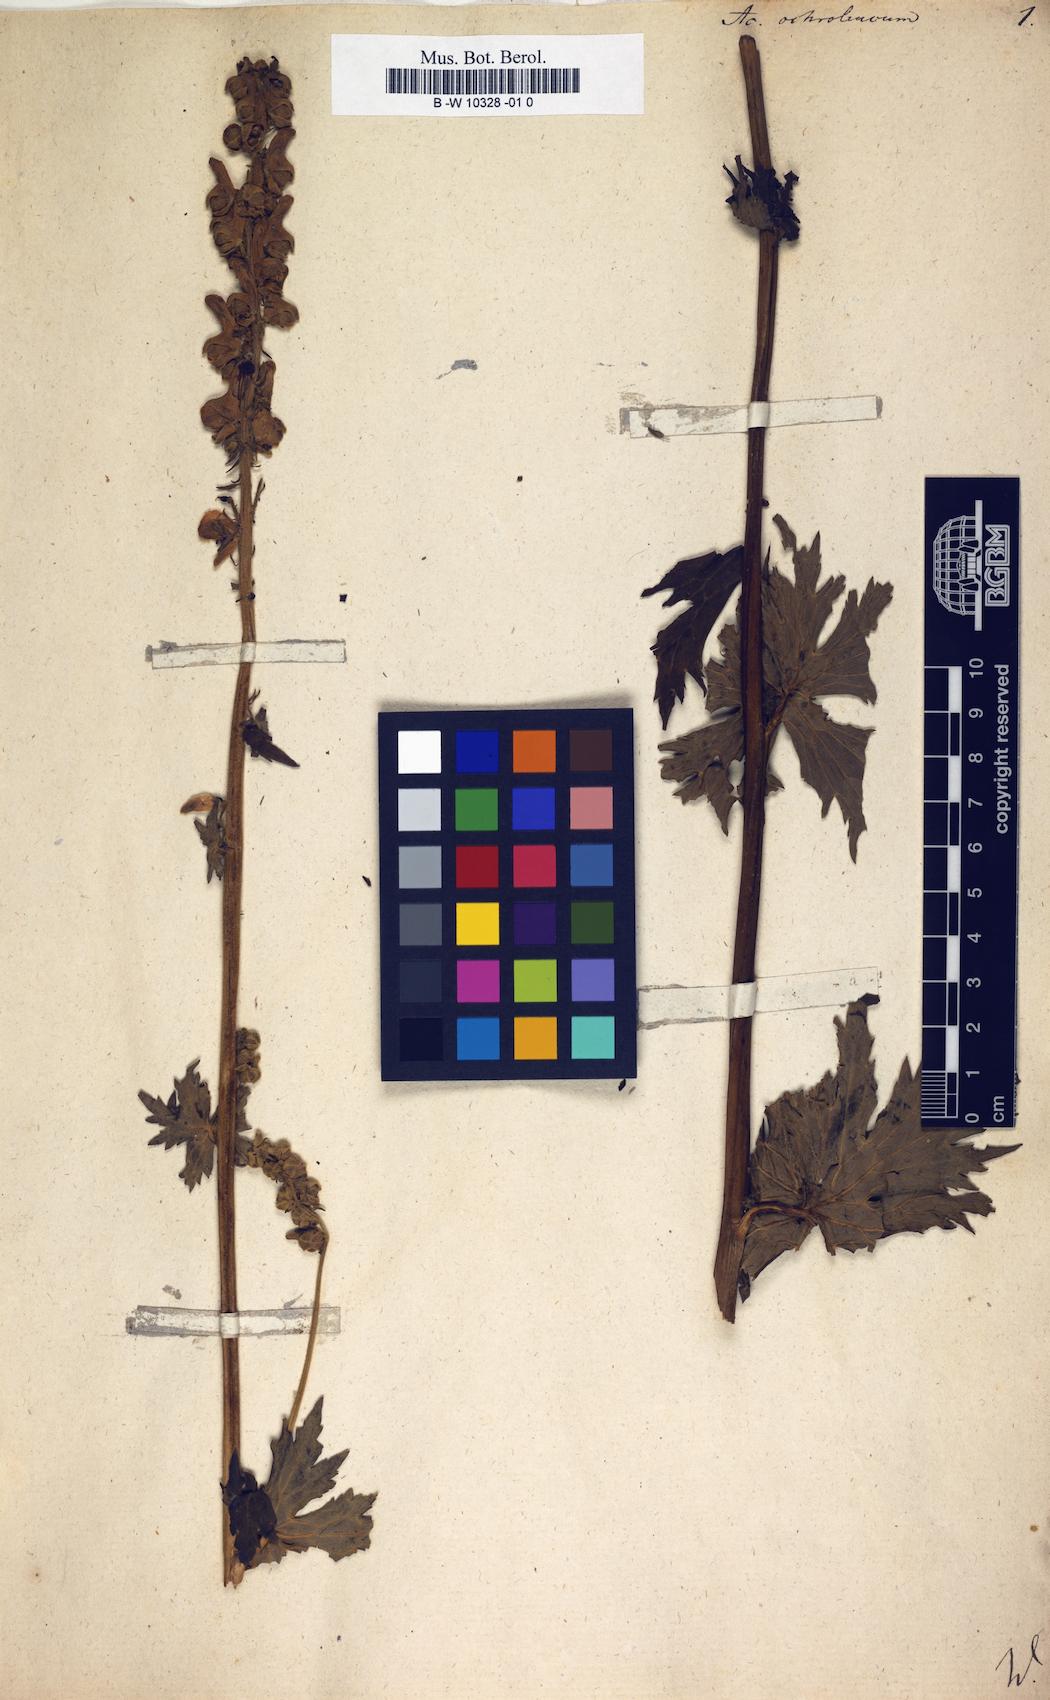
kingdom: Plantae
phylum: Tracheophyta
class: Magnoliopsida
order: Ranunculales
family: Ranunculaceae
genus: Aconitum
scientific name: Aconitum orientale
